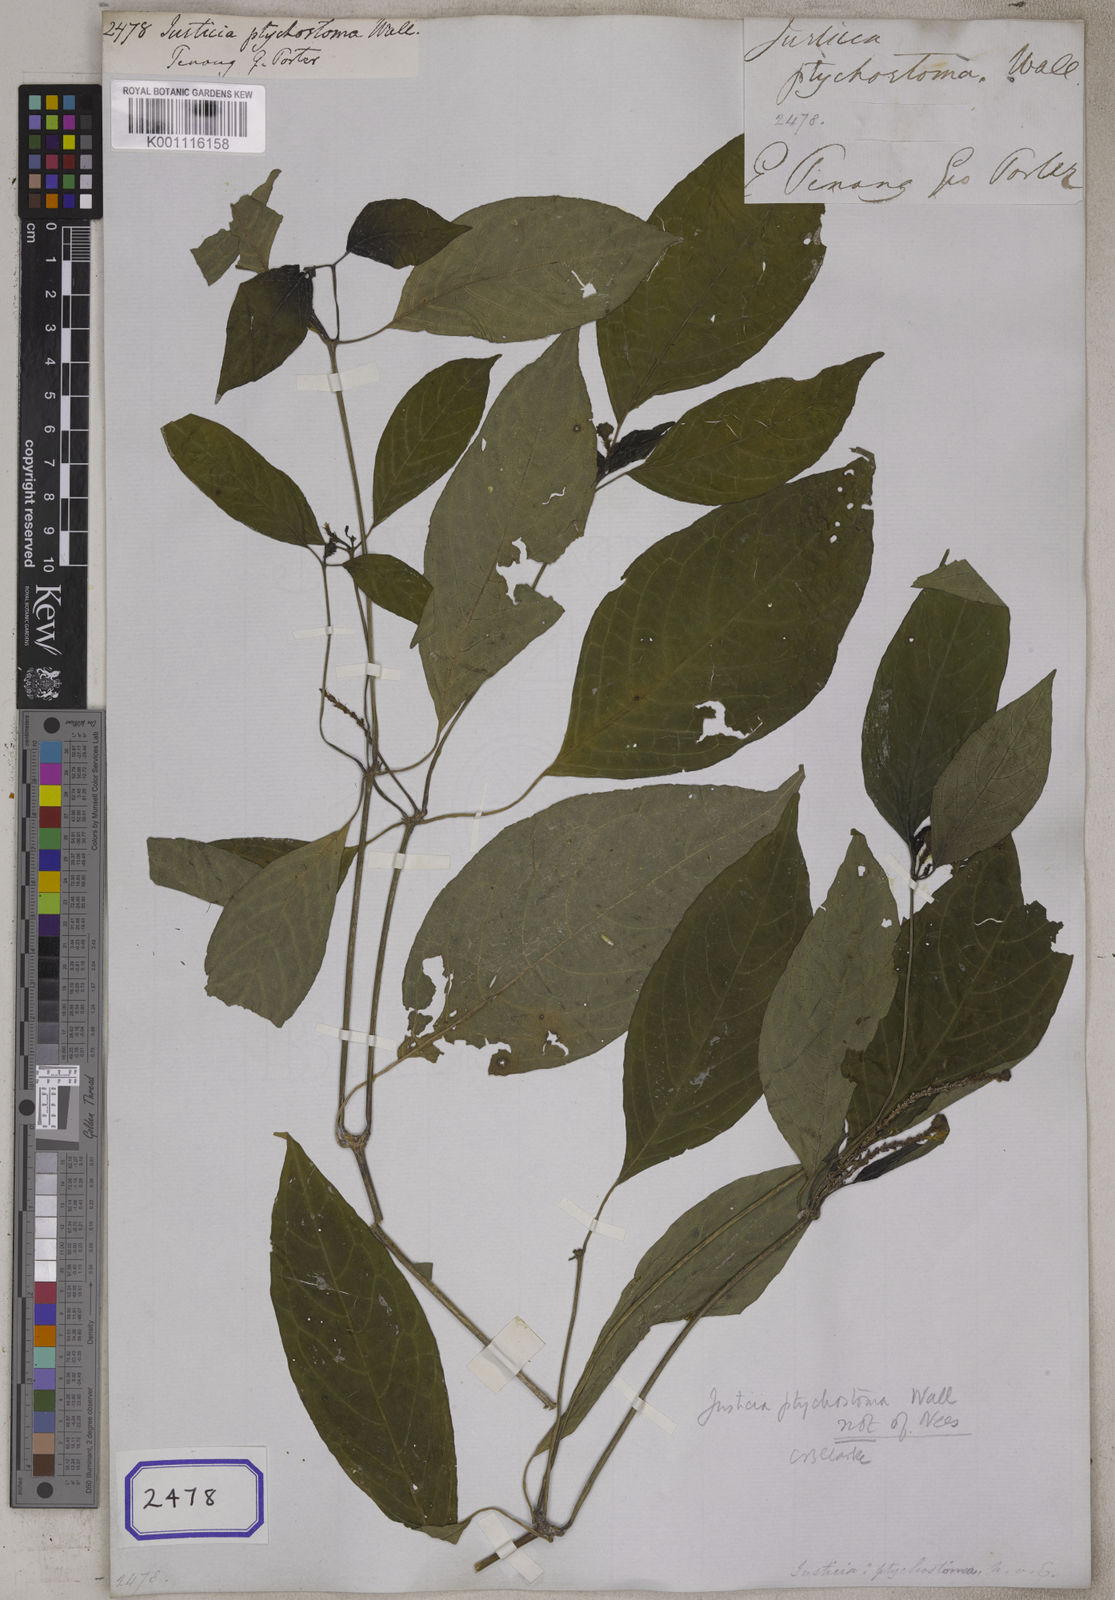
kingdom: Plantae
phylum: Tracheophyta
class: Magnoliopsida
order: Lamiales
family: Acanthaceae
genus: Justicia
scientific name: Justicia sumatrana
